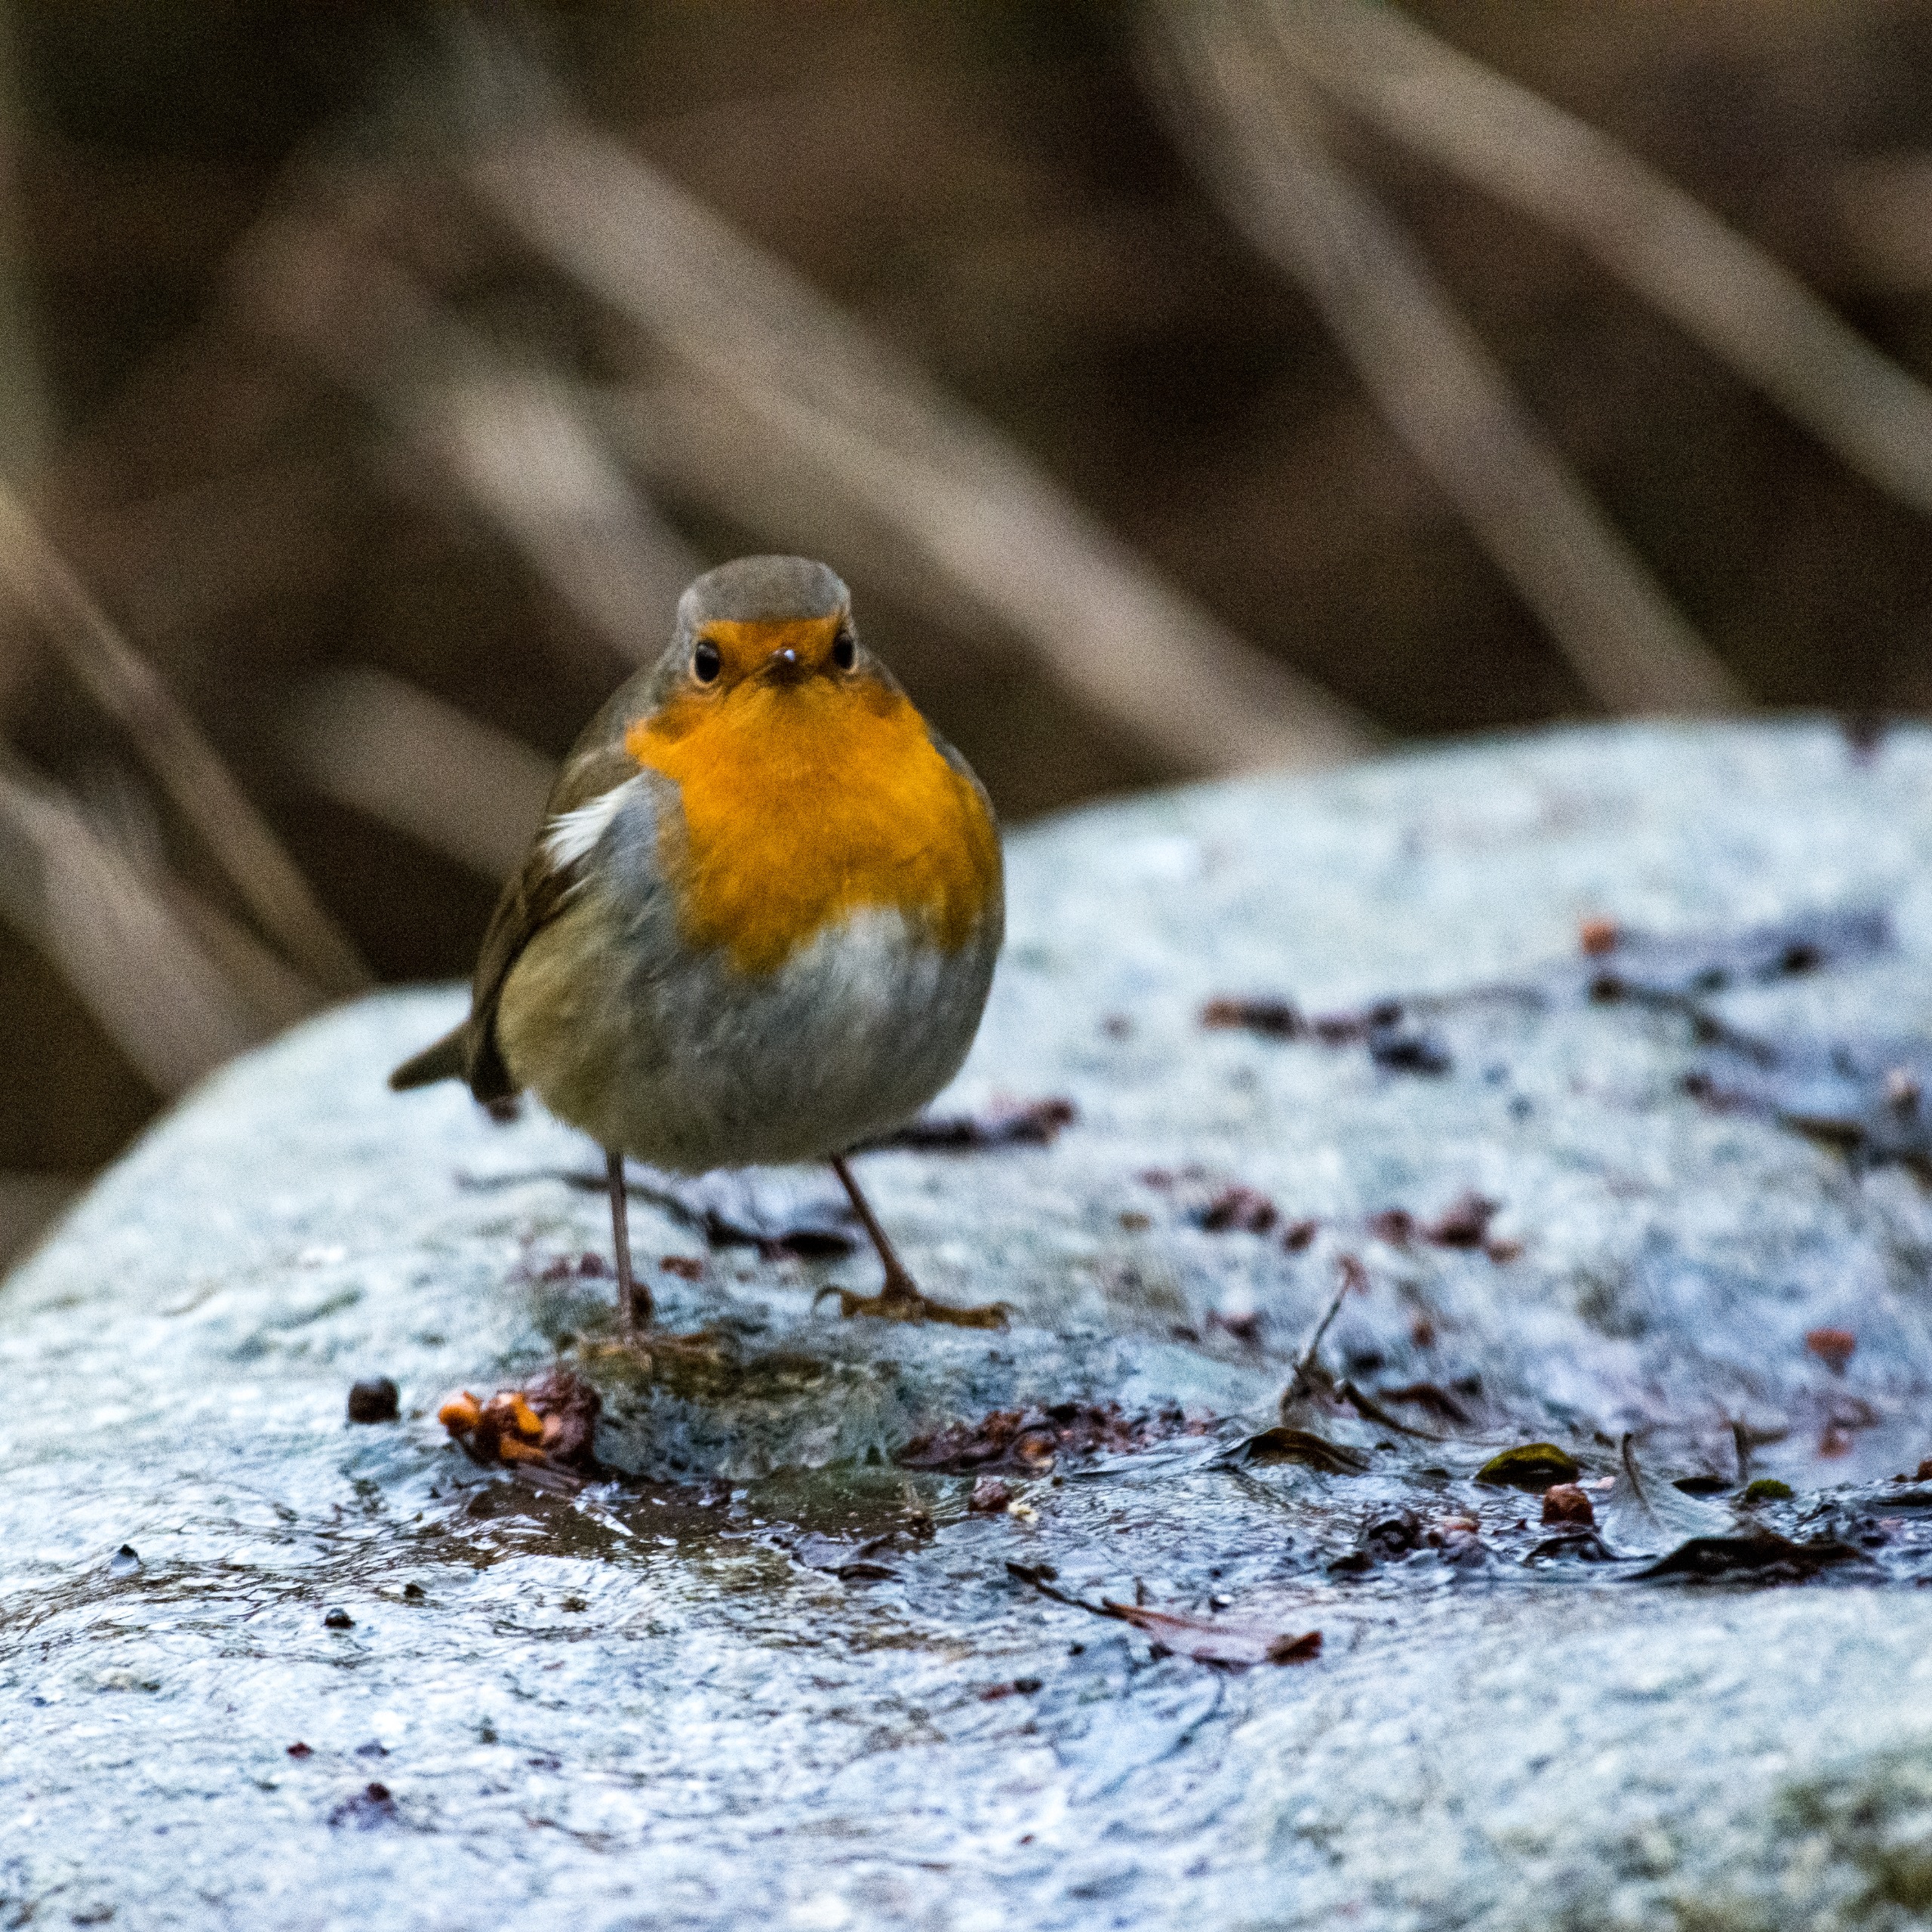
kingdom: Animalia
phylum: Chordata
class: Aves
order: Passeriformes
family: Muscicapidae
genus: Erithacus
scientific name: Erithacus rubecula
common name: Rødhals/rødkælk
